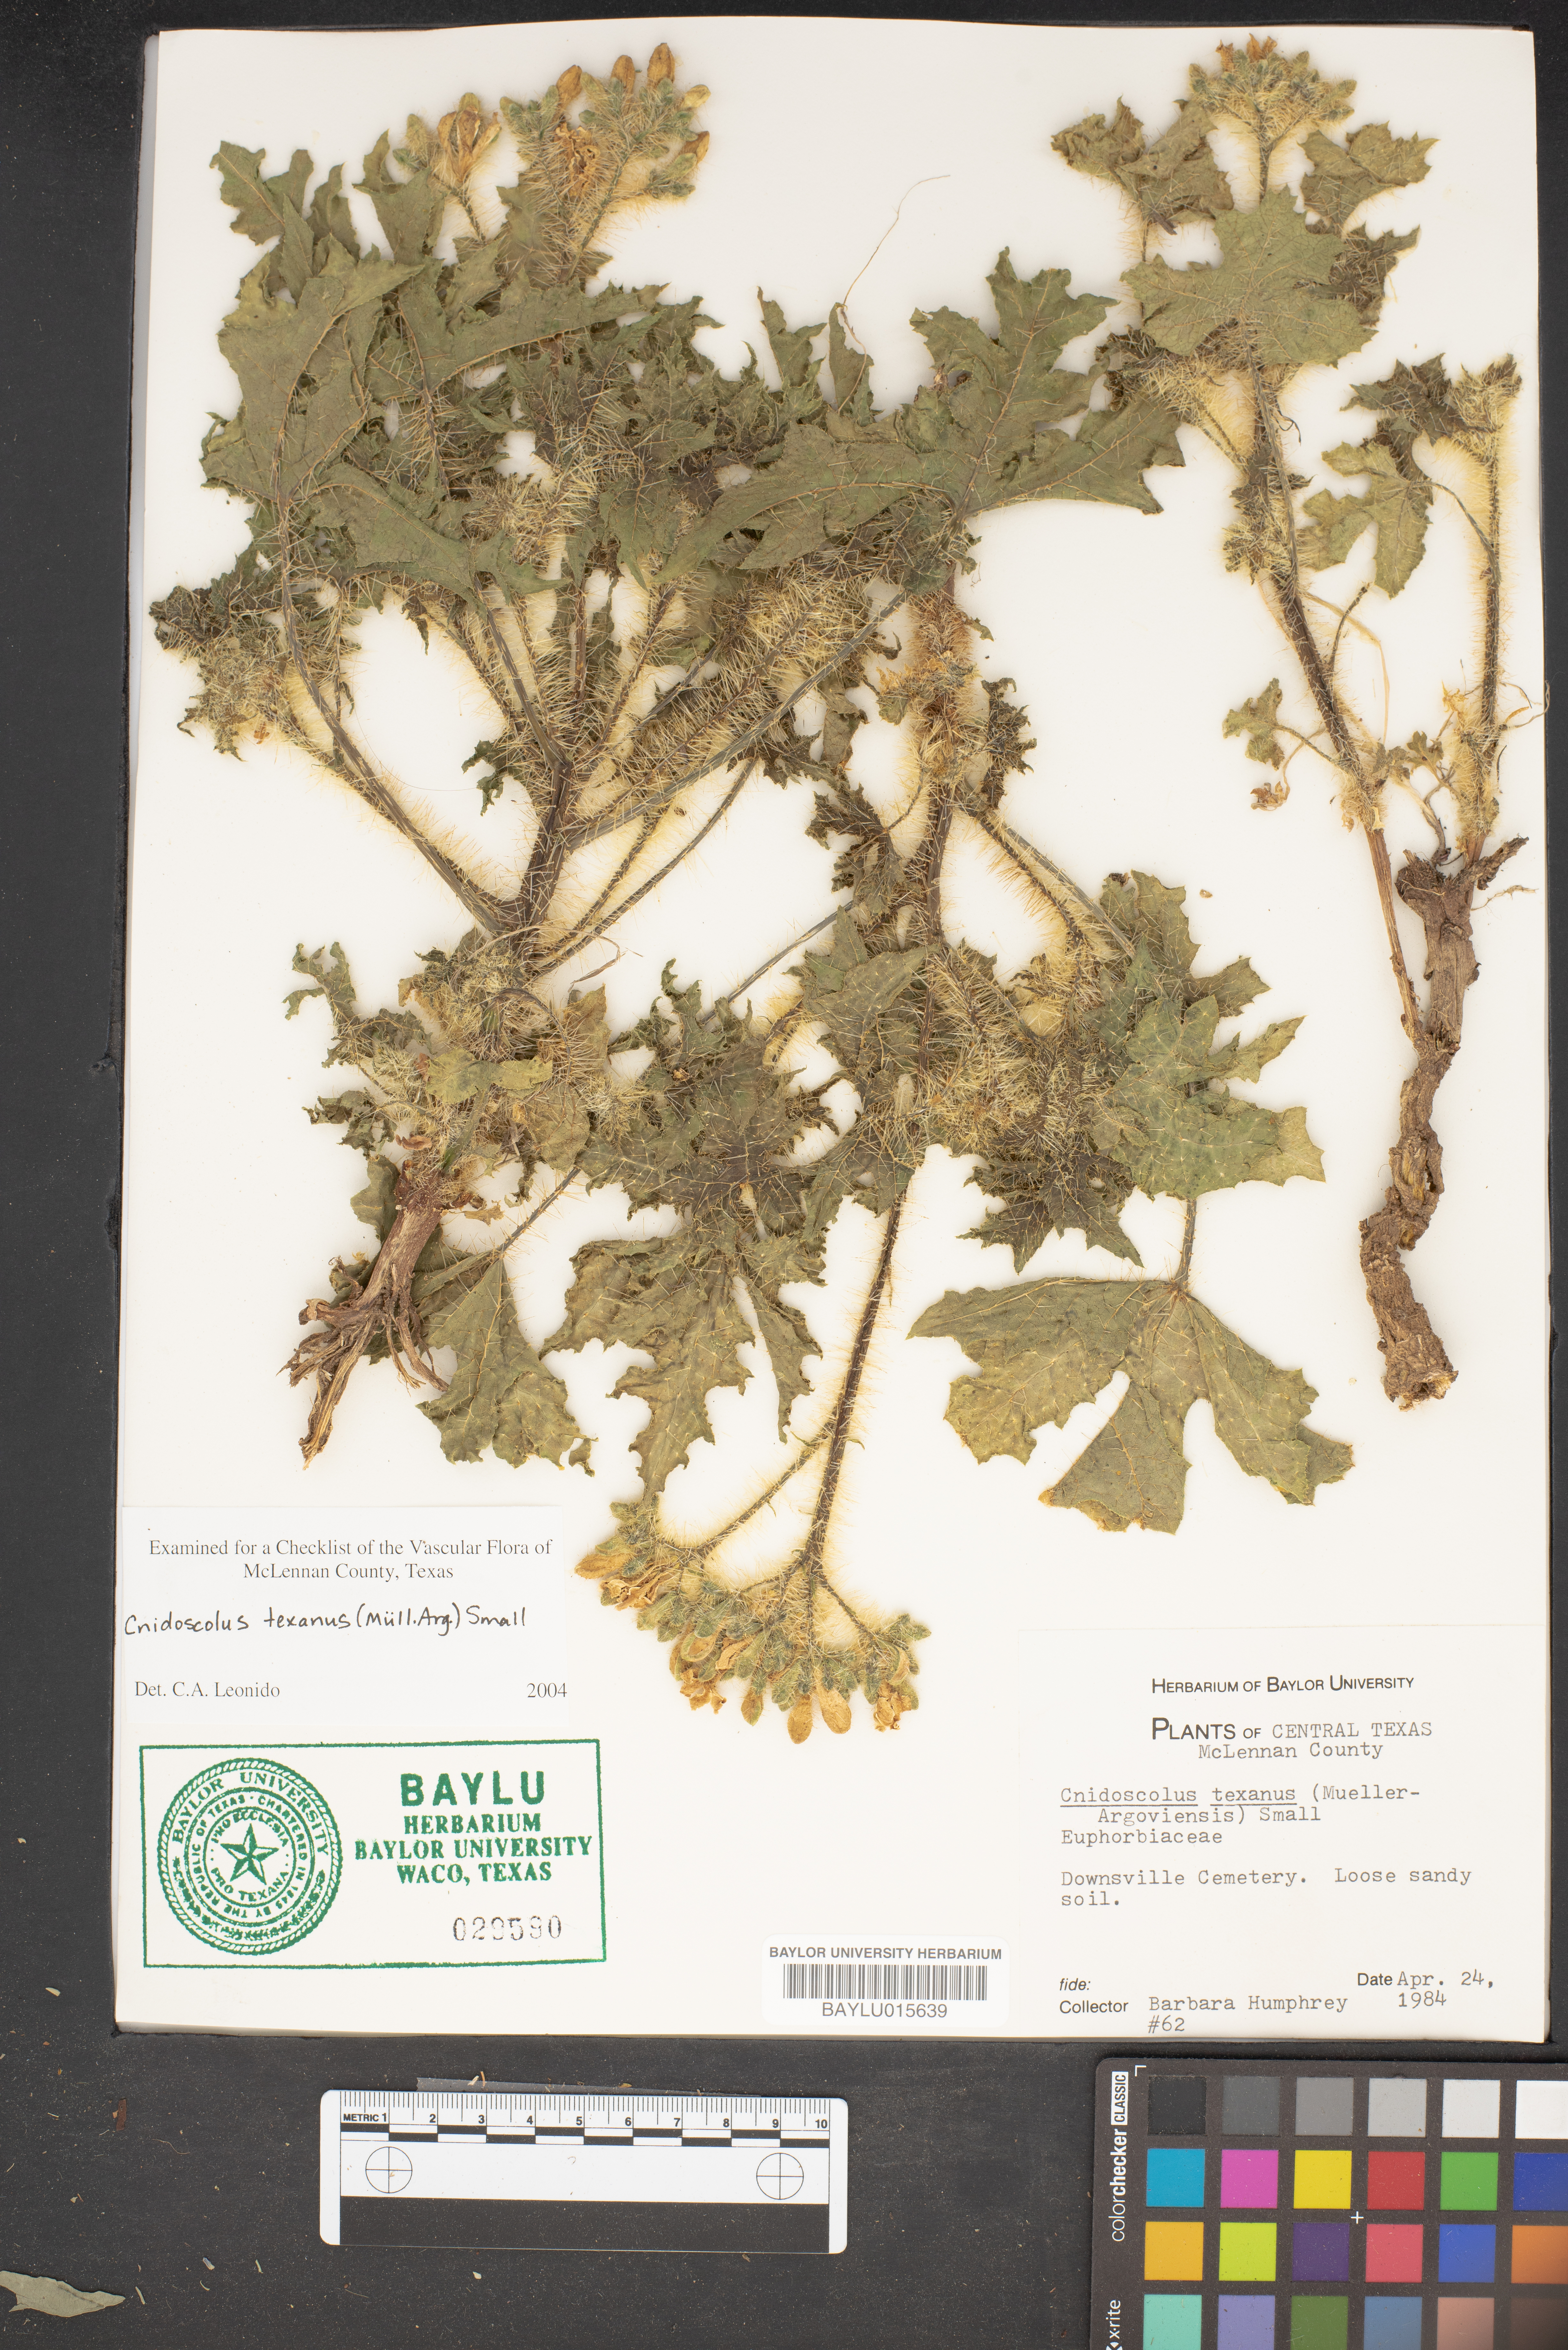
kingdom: Plantae
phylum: Tracheophyta
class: Magnoliopsida
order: Malpighiales
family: Euphorbiaceae
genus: Cnidoscolus
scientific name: Cnidoscolus texanus
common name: Texas bull-nettle
